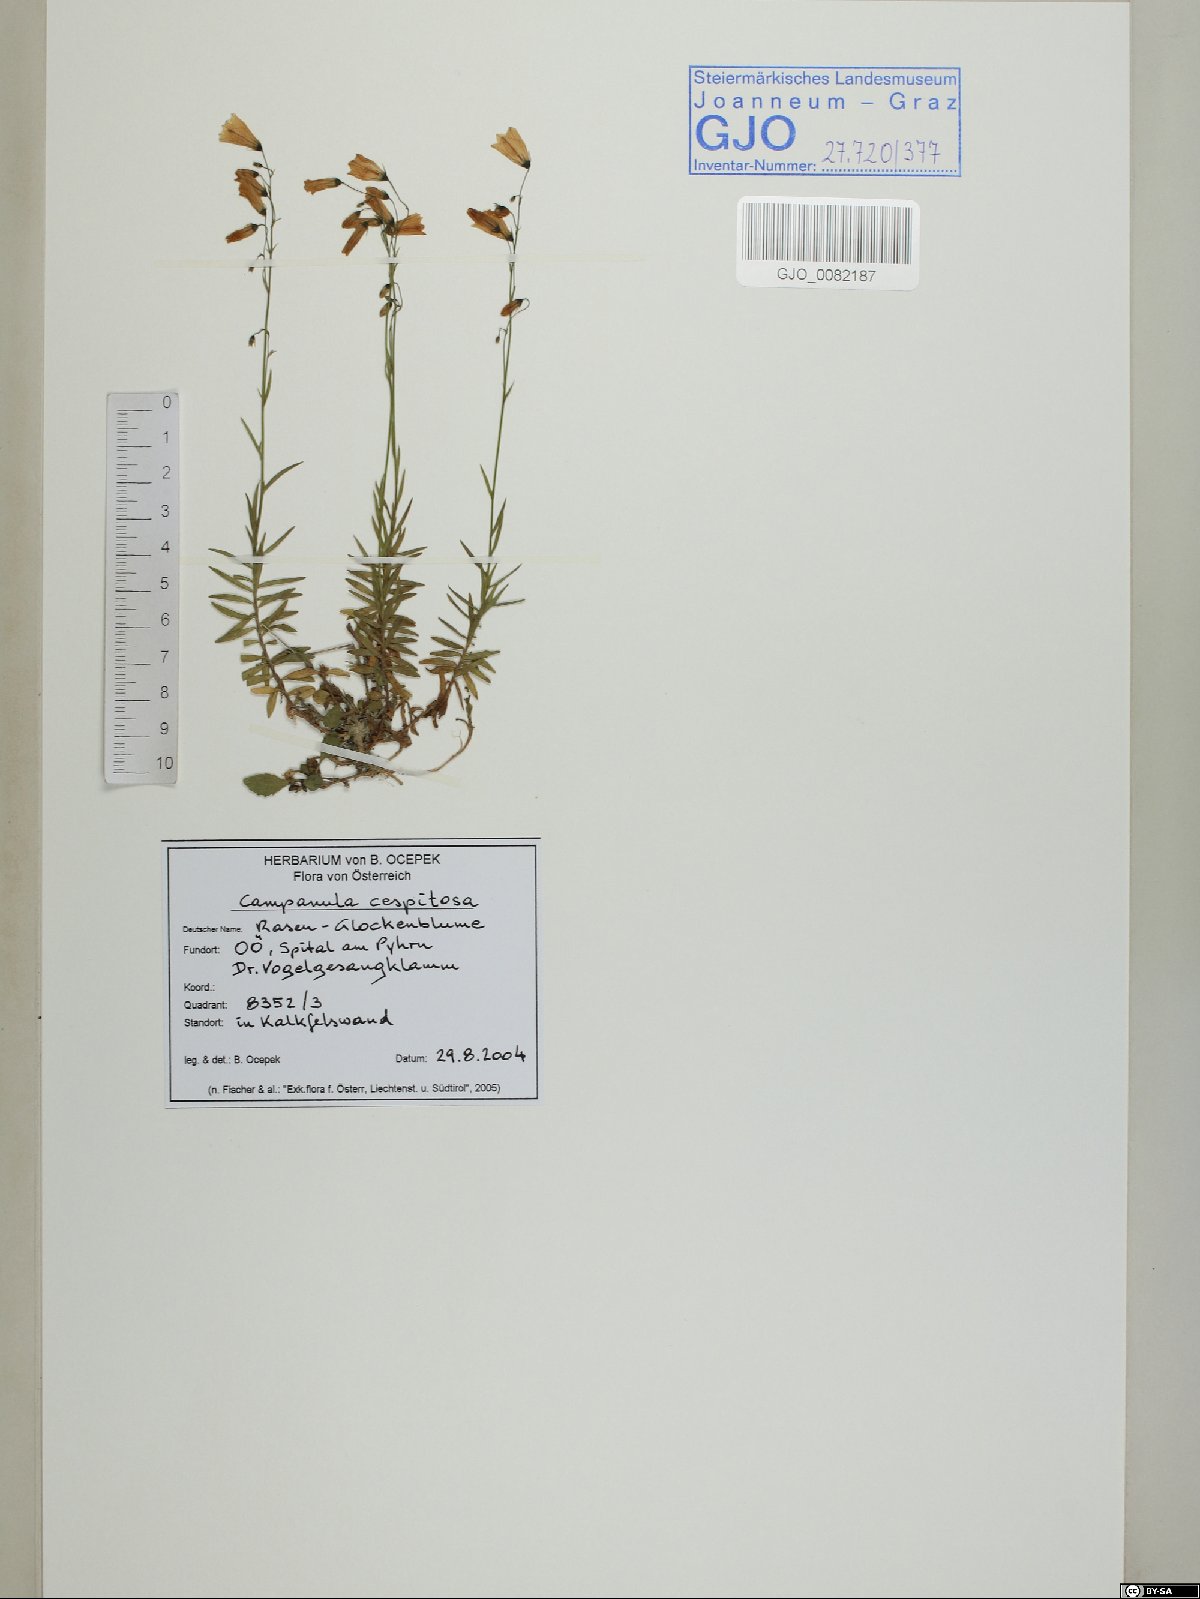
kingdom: Plantae
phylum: Tracheophyta
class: Magnoliopsida
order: Asterales
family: Campanulaceae
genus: Campanula
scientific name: Campanula cespitosa
